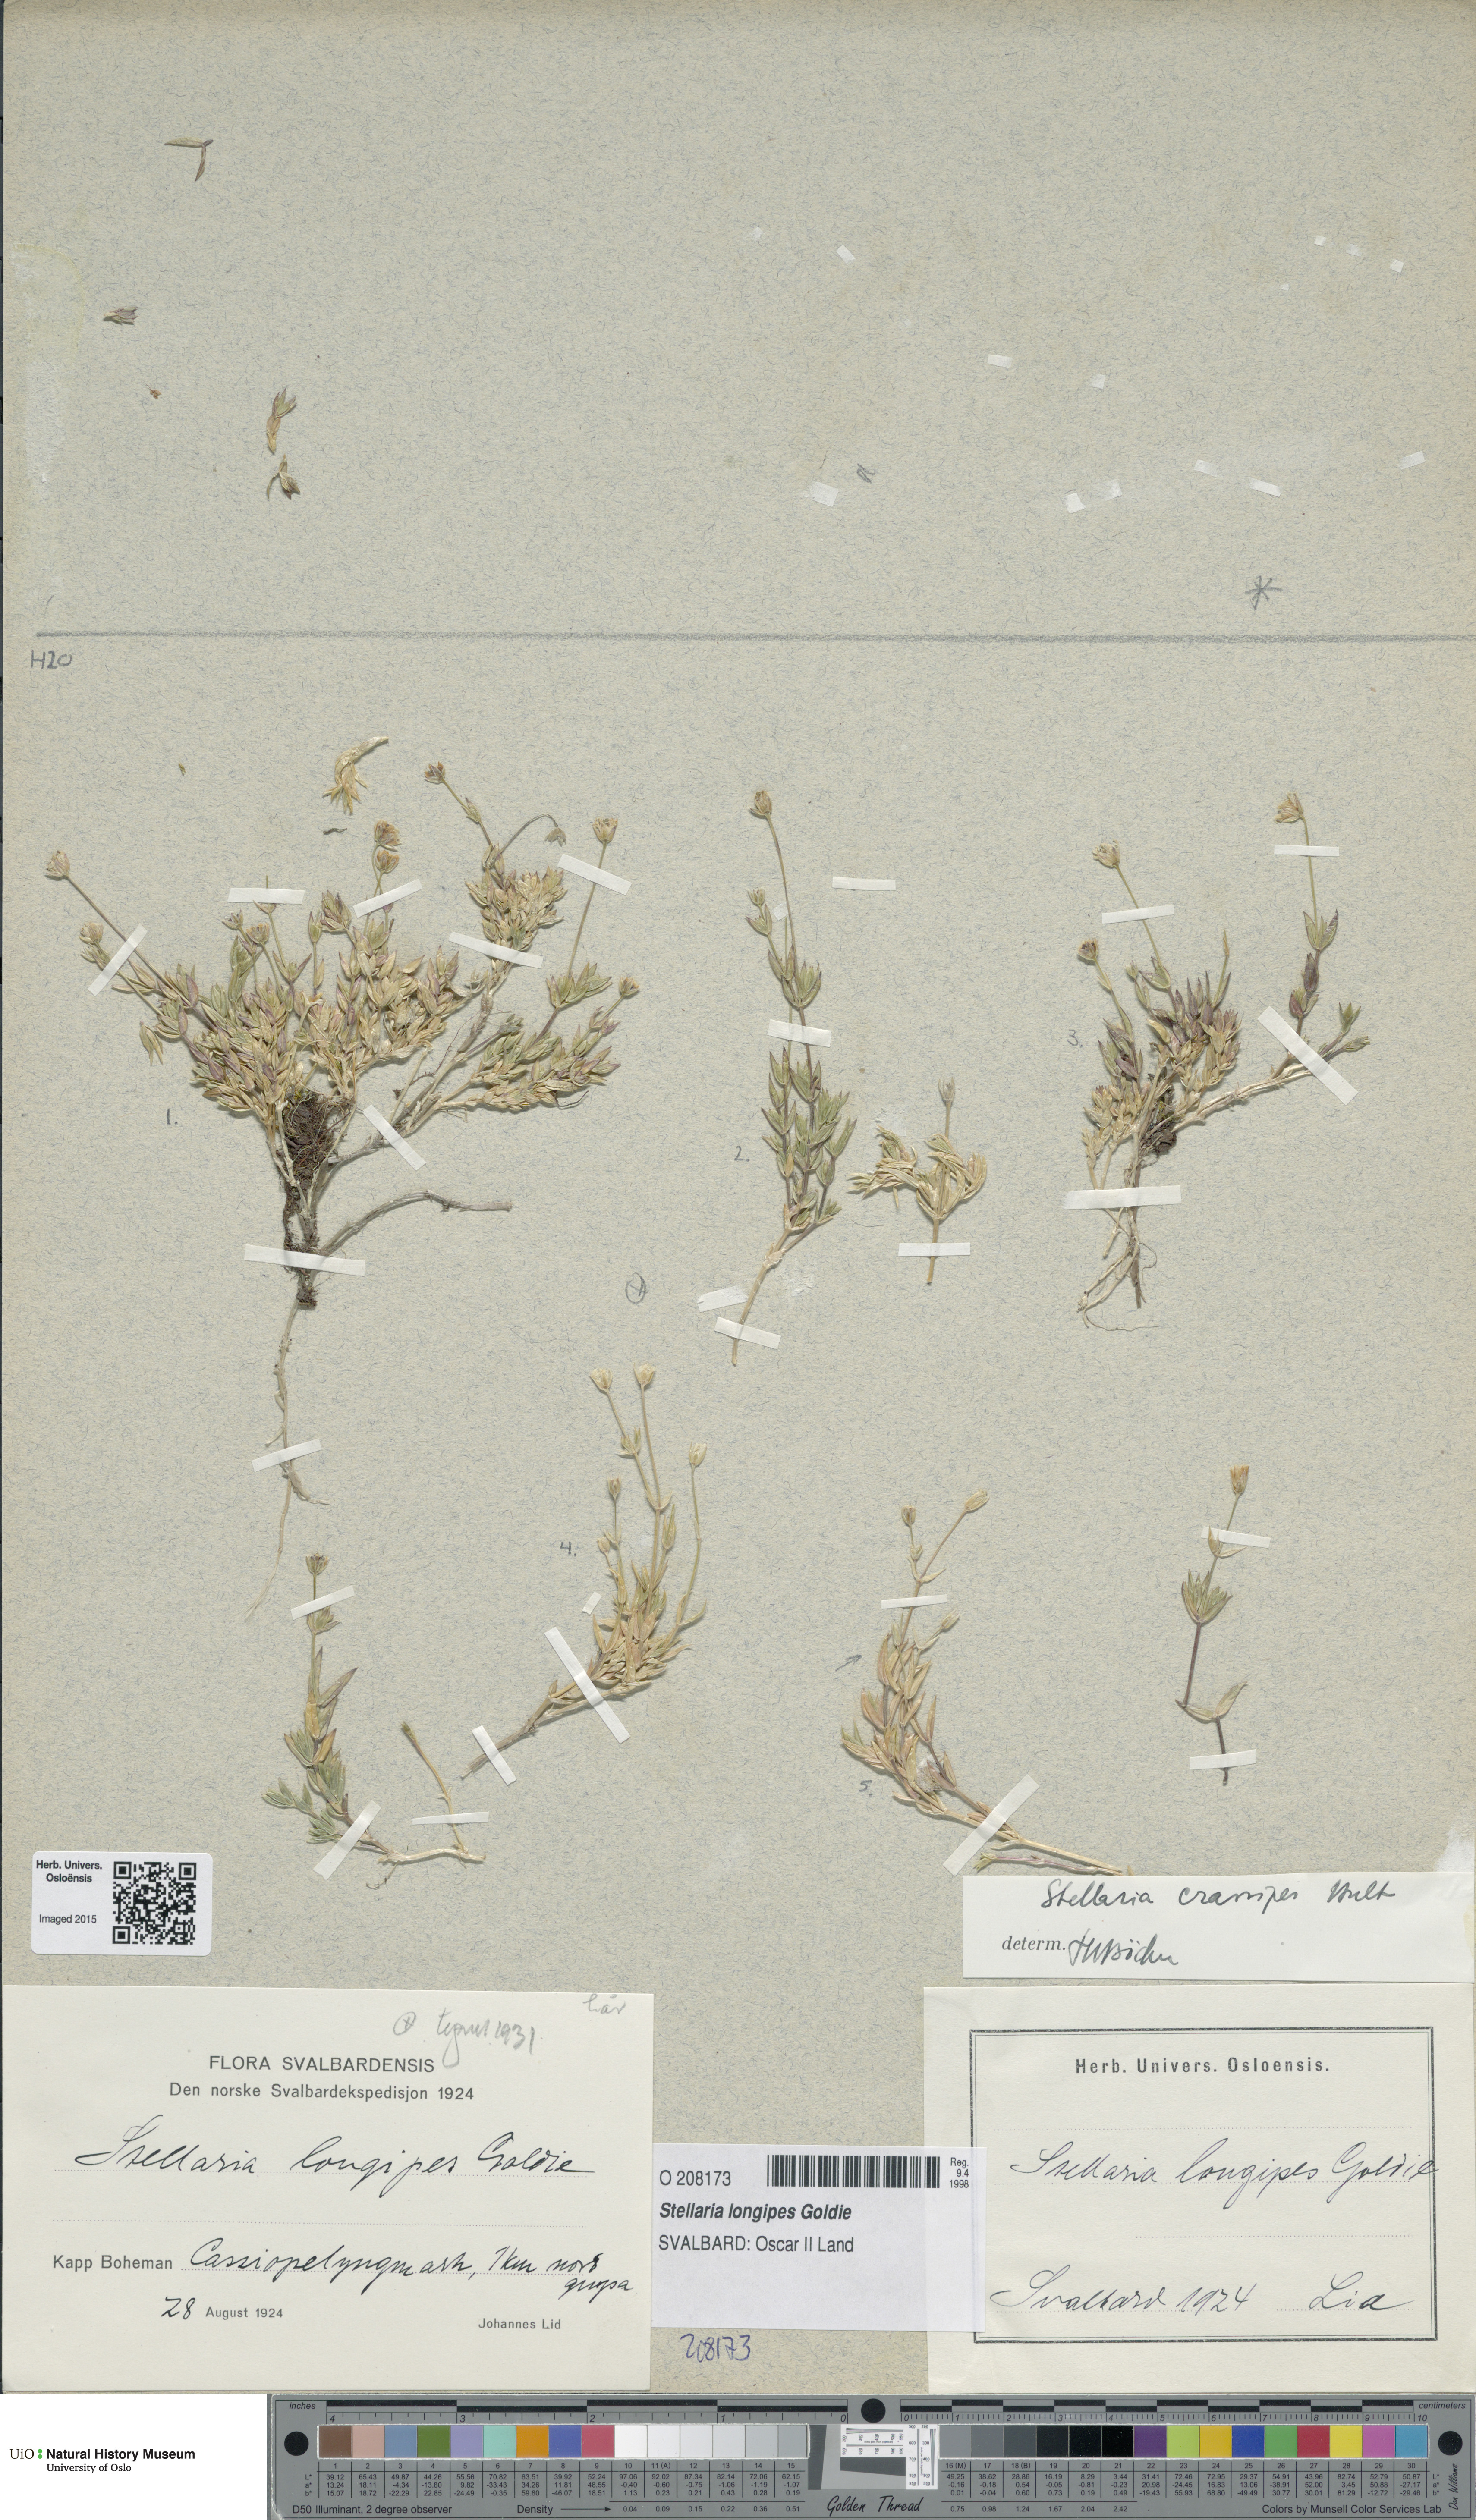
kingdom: Plantae
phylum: Tracheophyta
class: Magnoliopsida
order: Caryophyllales
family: Caryophyllaceae
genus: Stellaria
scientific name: Stellaria longipes
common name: Goldie's starwort
